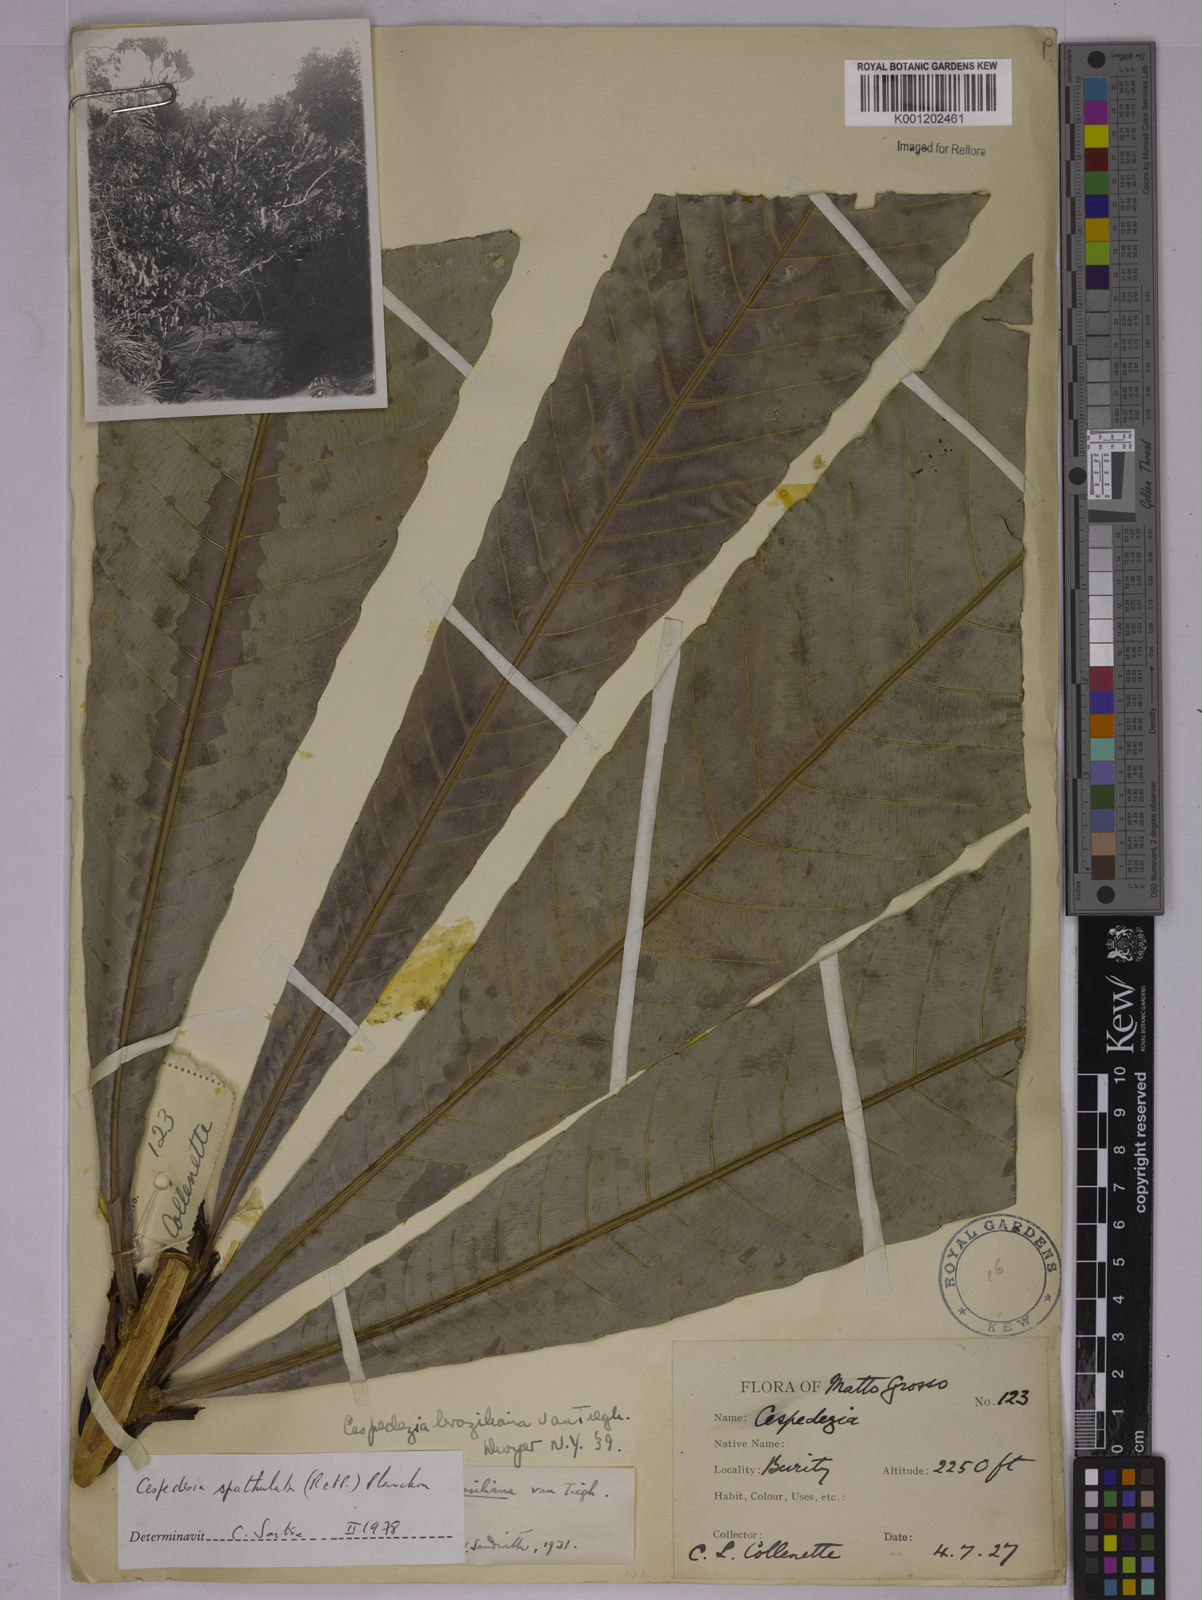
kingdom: Plantae
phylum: Tracheophyta
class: Magnoliopsida
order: Malpighiales
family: Ochnaceae
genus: Cespedesia
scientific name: Cespedesia spathulata
